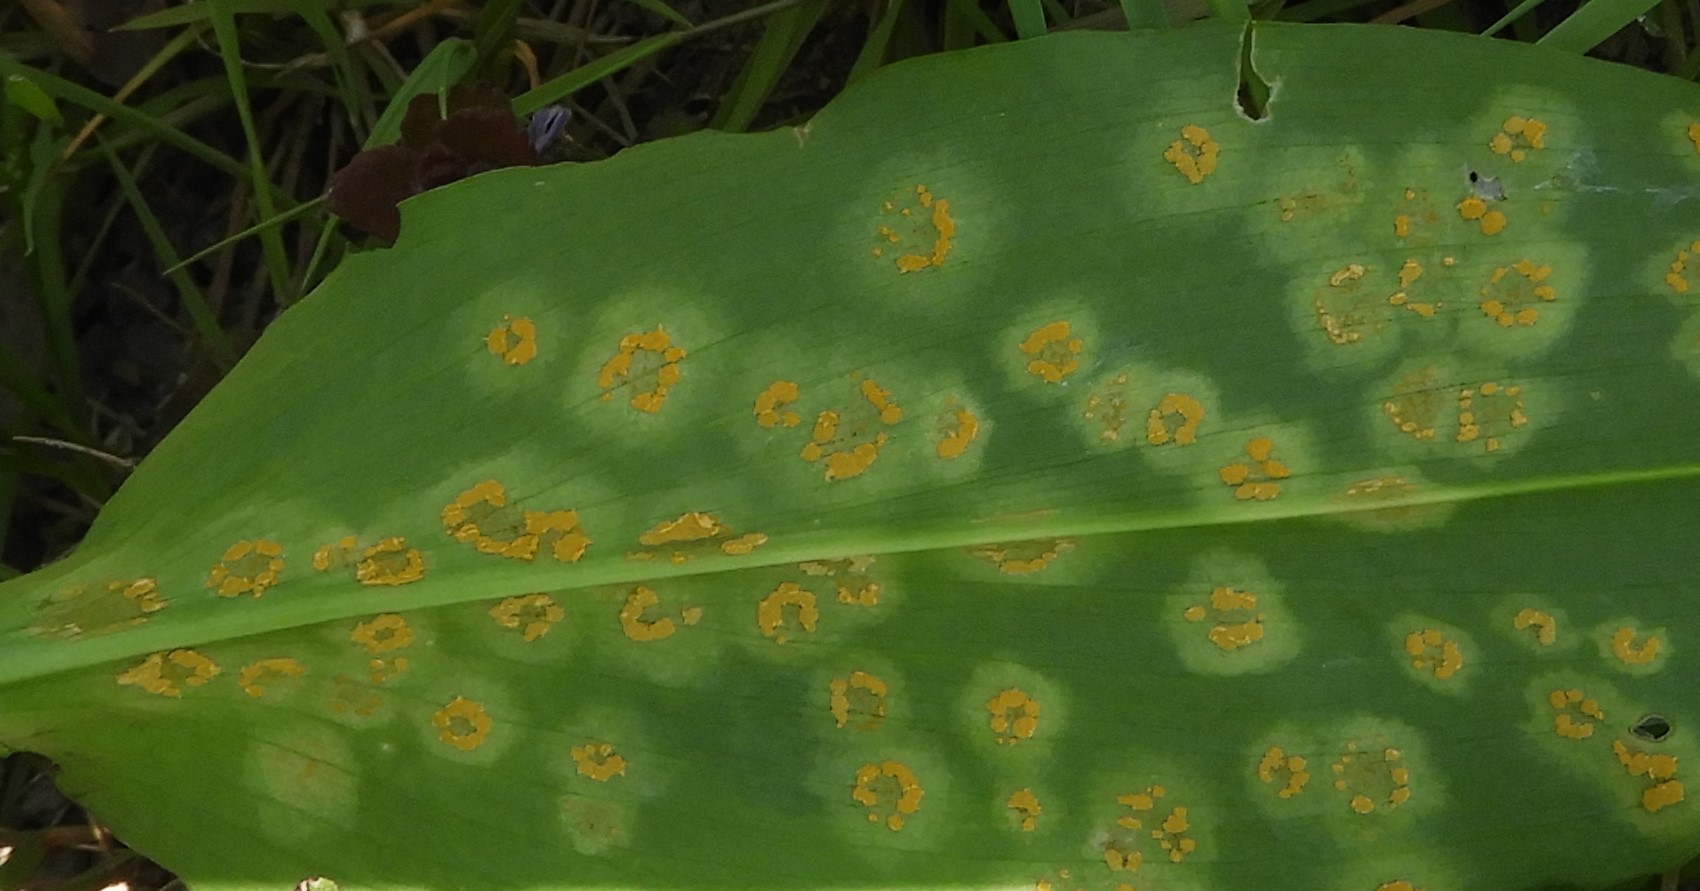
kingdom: Fungi
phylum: Basidiomycota
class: Pucciniomycetes
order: Pucciniales
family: Melampsoraceae
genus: Melampsora
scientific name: Melampsora
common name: skorperust
